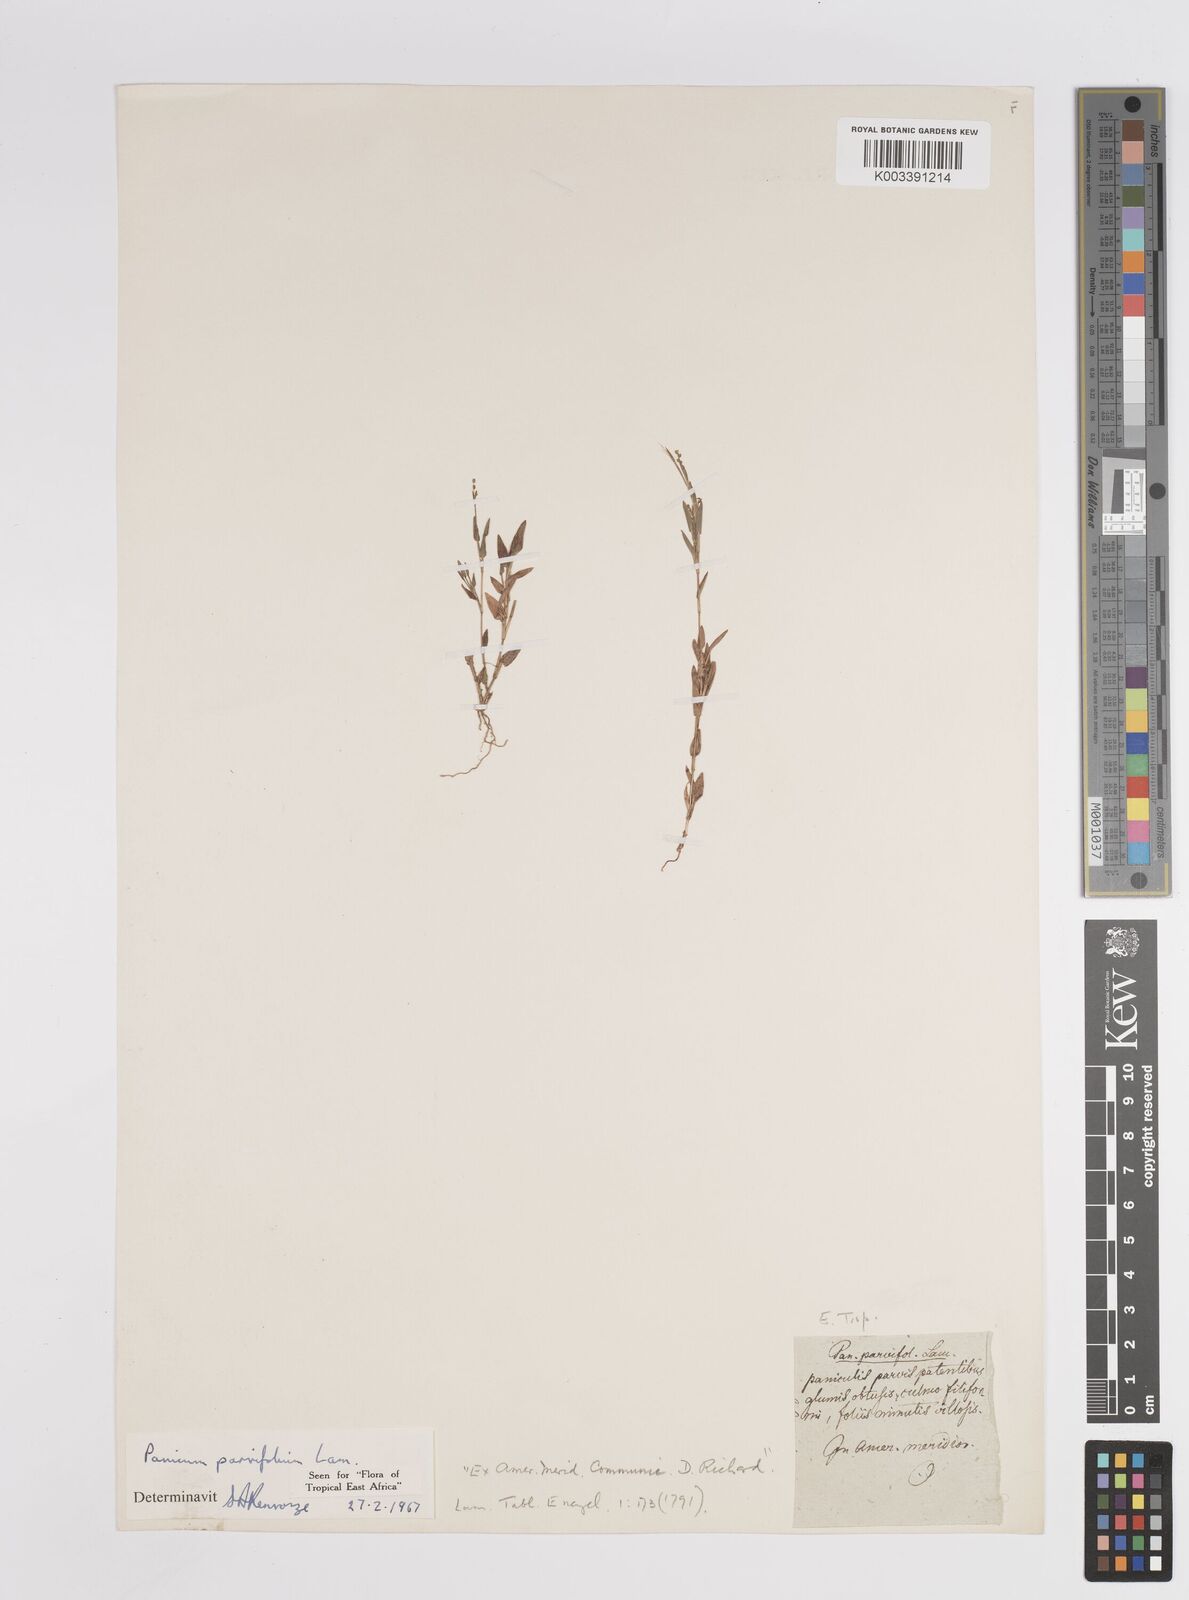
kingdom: Plantae
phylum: Tracheophyta
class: Liliopsida
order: Poales
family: Poaceae
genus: Trichanthecium
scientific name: Trichanthecium parvifolium
